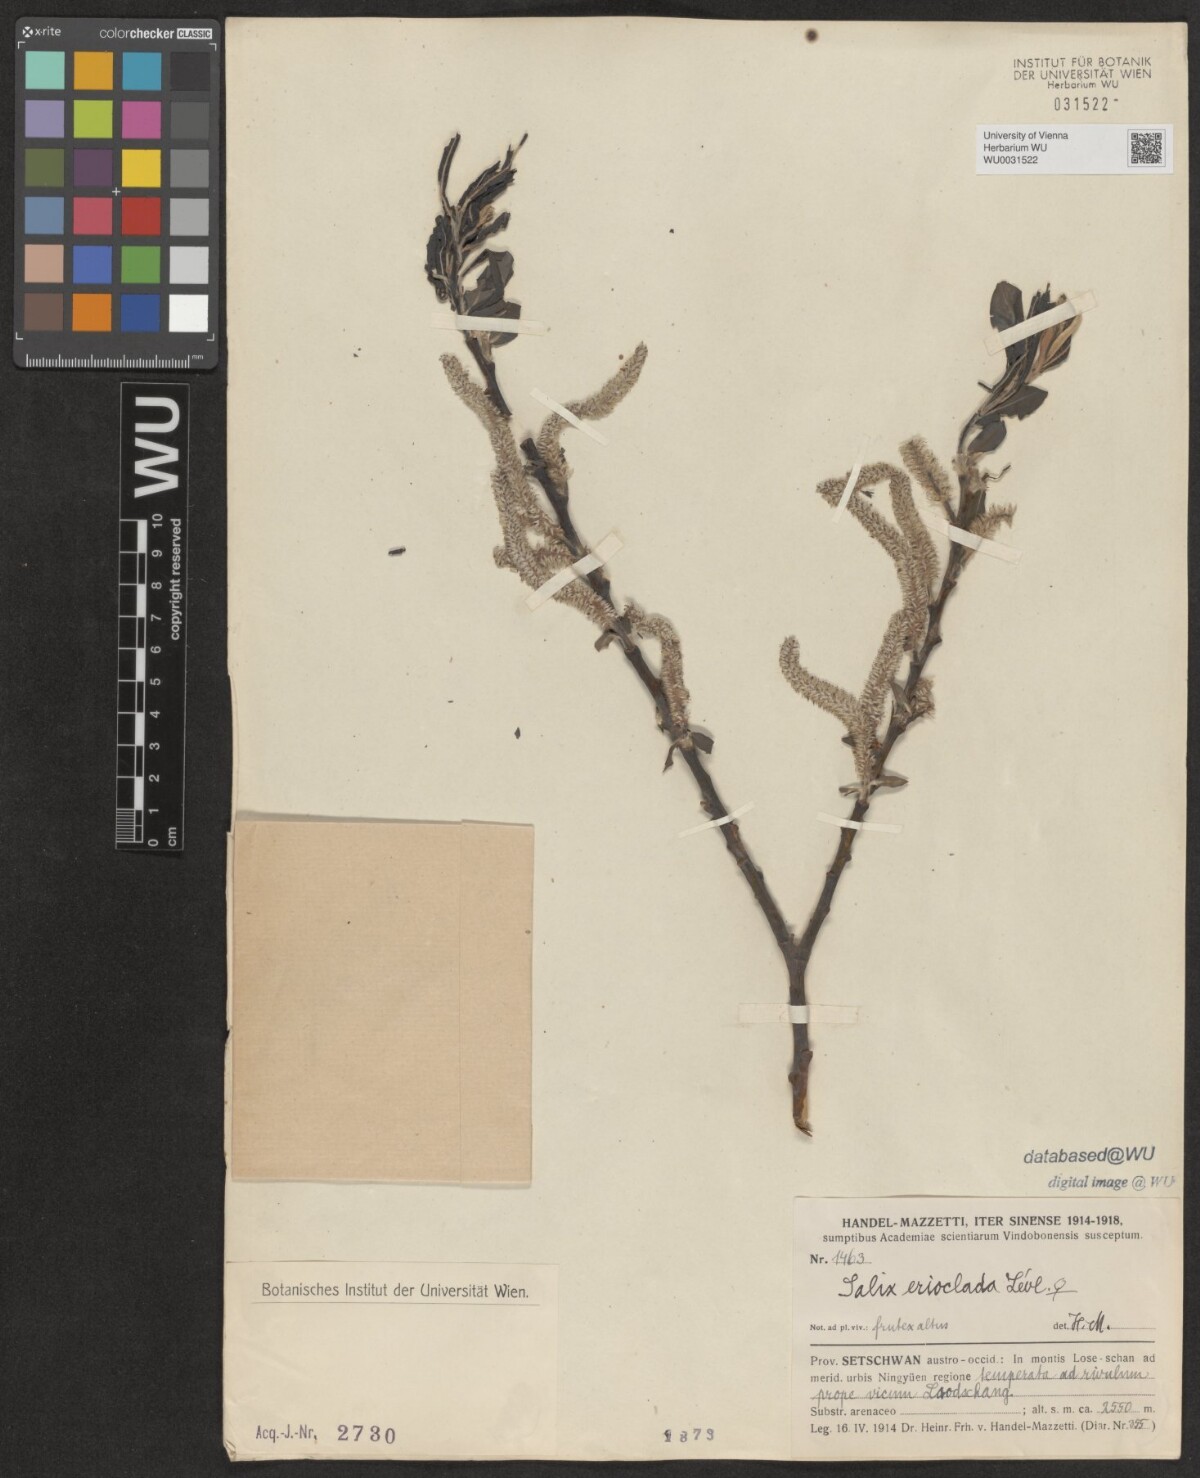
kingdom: Plantae
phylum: Tracheophyta
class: Magnoliopsida
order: Malpighiales
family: Salicaceae
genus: Salix
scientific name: Salix erioclada
